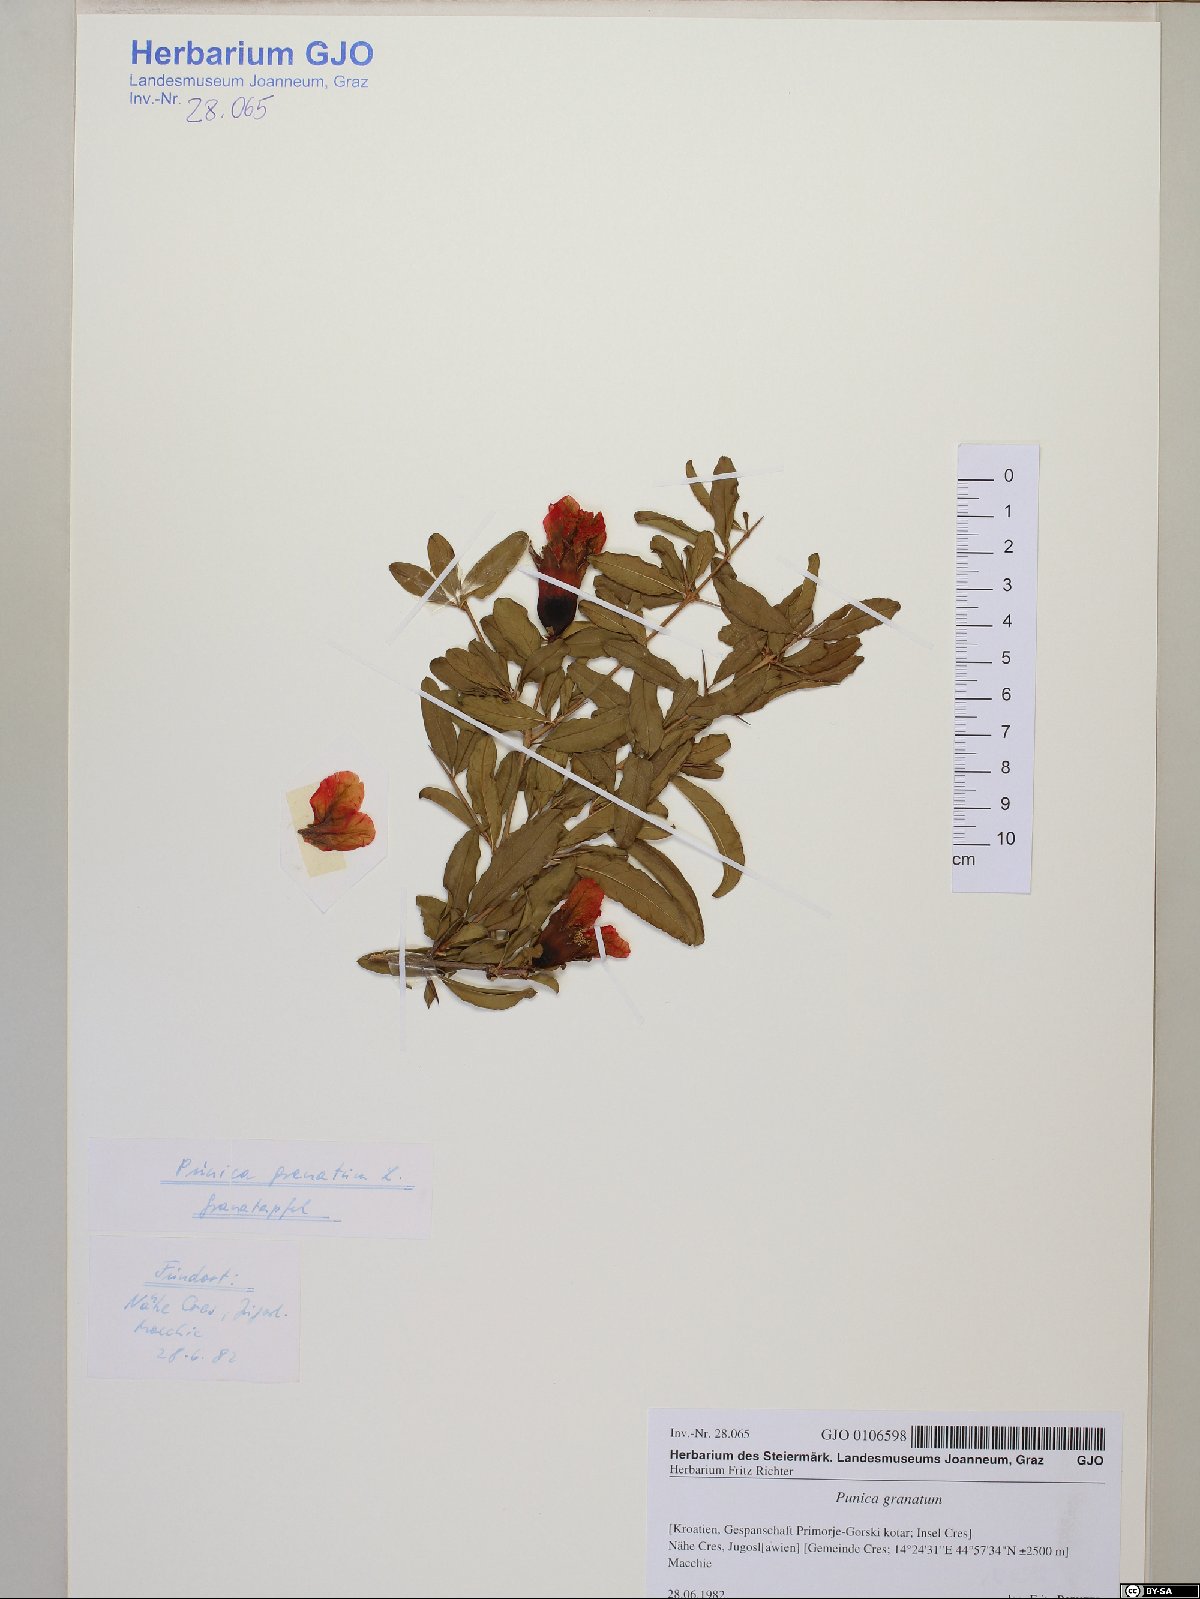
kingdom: Plantae
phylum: Tracheophyta
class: Magnoliopsida
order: Myrtales
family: Lythraceae
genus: Punica
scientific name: Punica granatum
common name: Pomegranate
